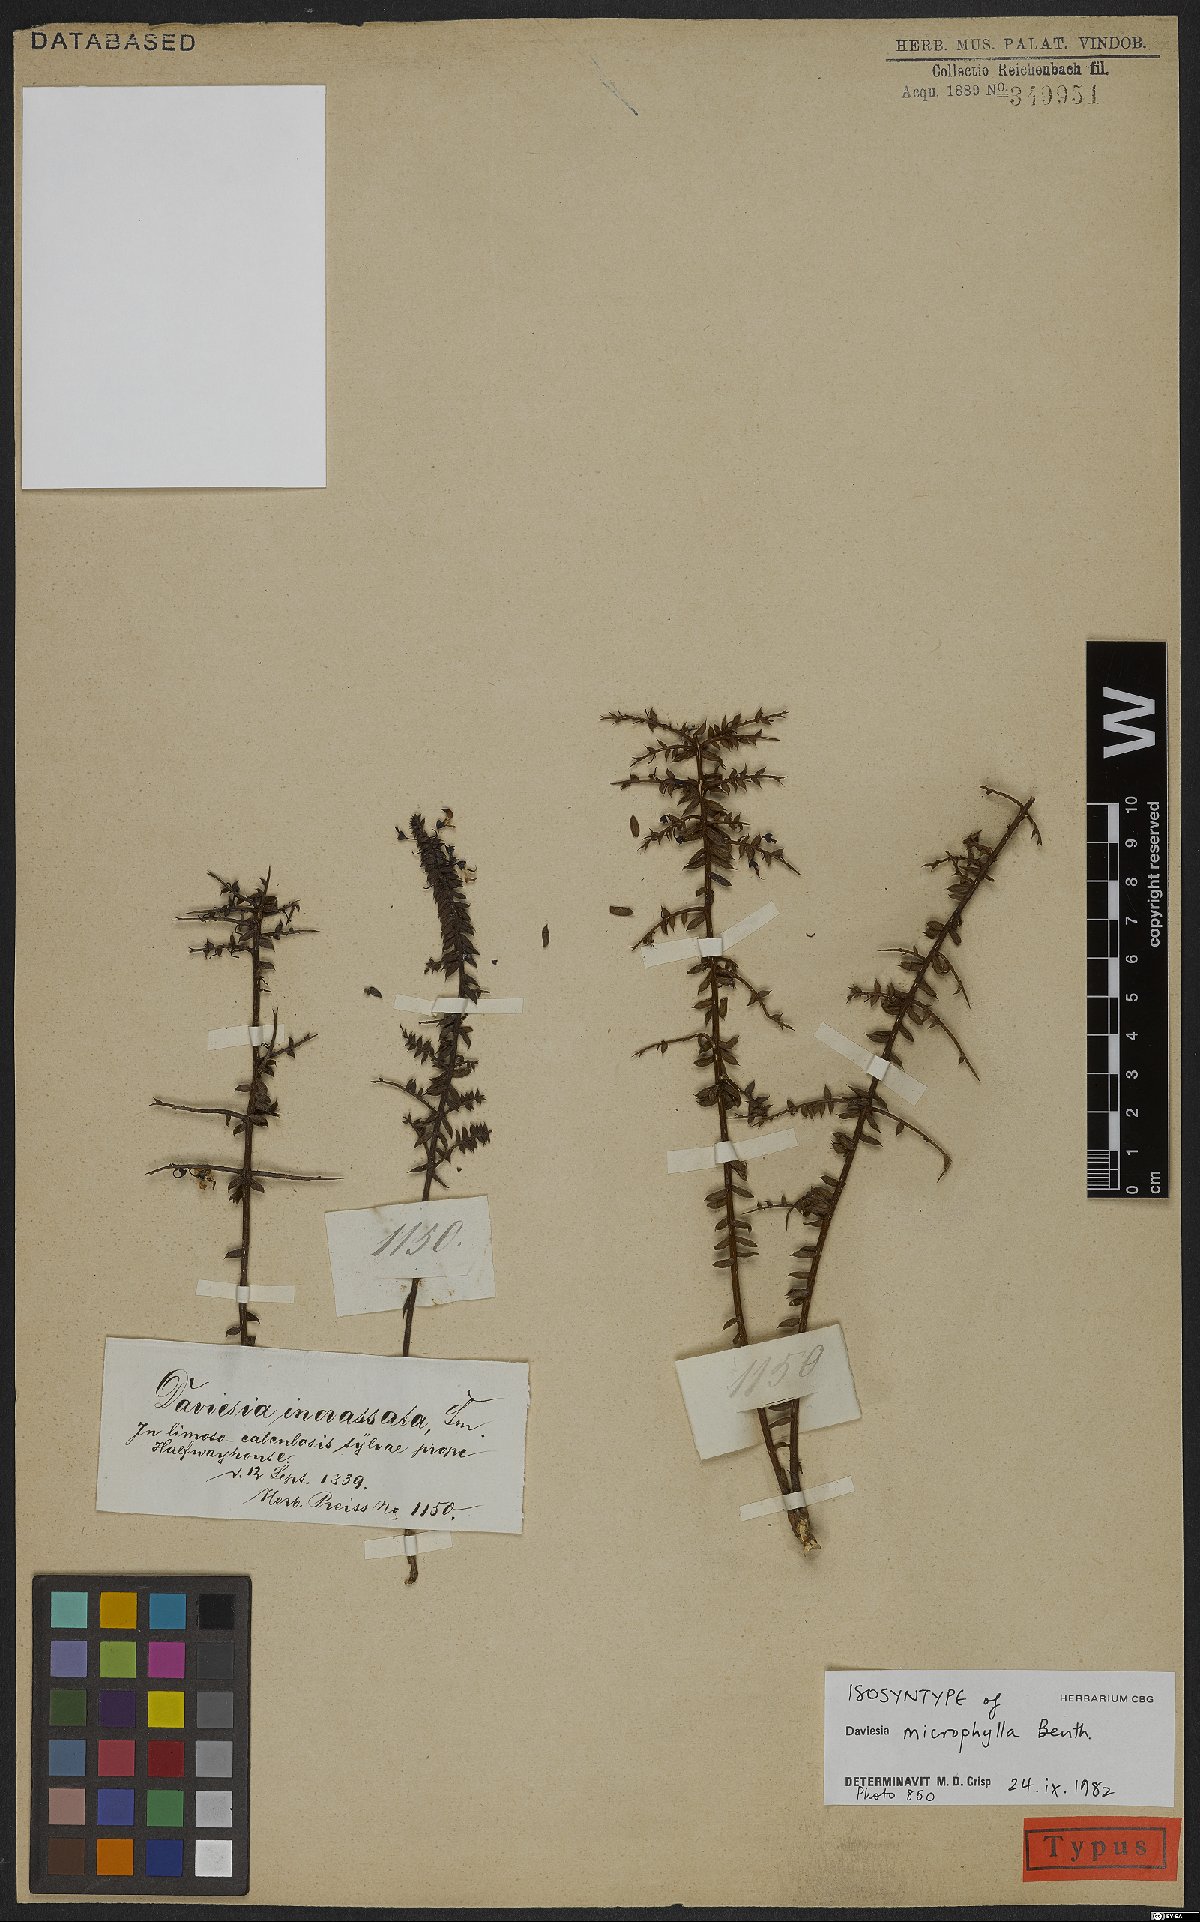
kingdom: Plantae
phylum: Tracheophyta
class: Magnoliopsida
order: Fabales
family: Fabaceae
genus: Daviesia
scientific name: Daviesia microphylla
